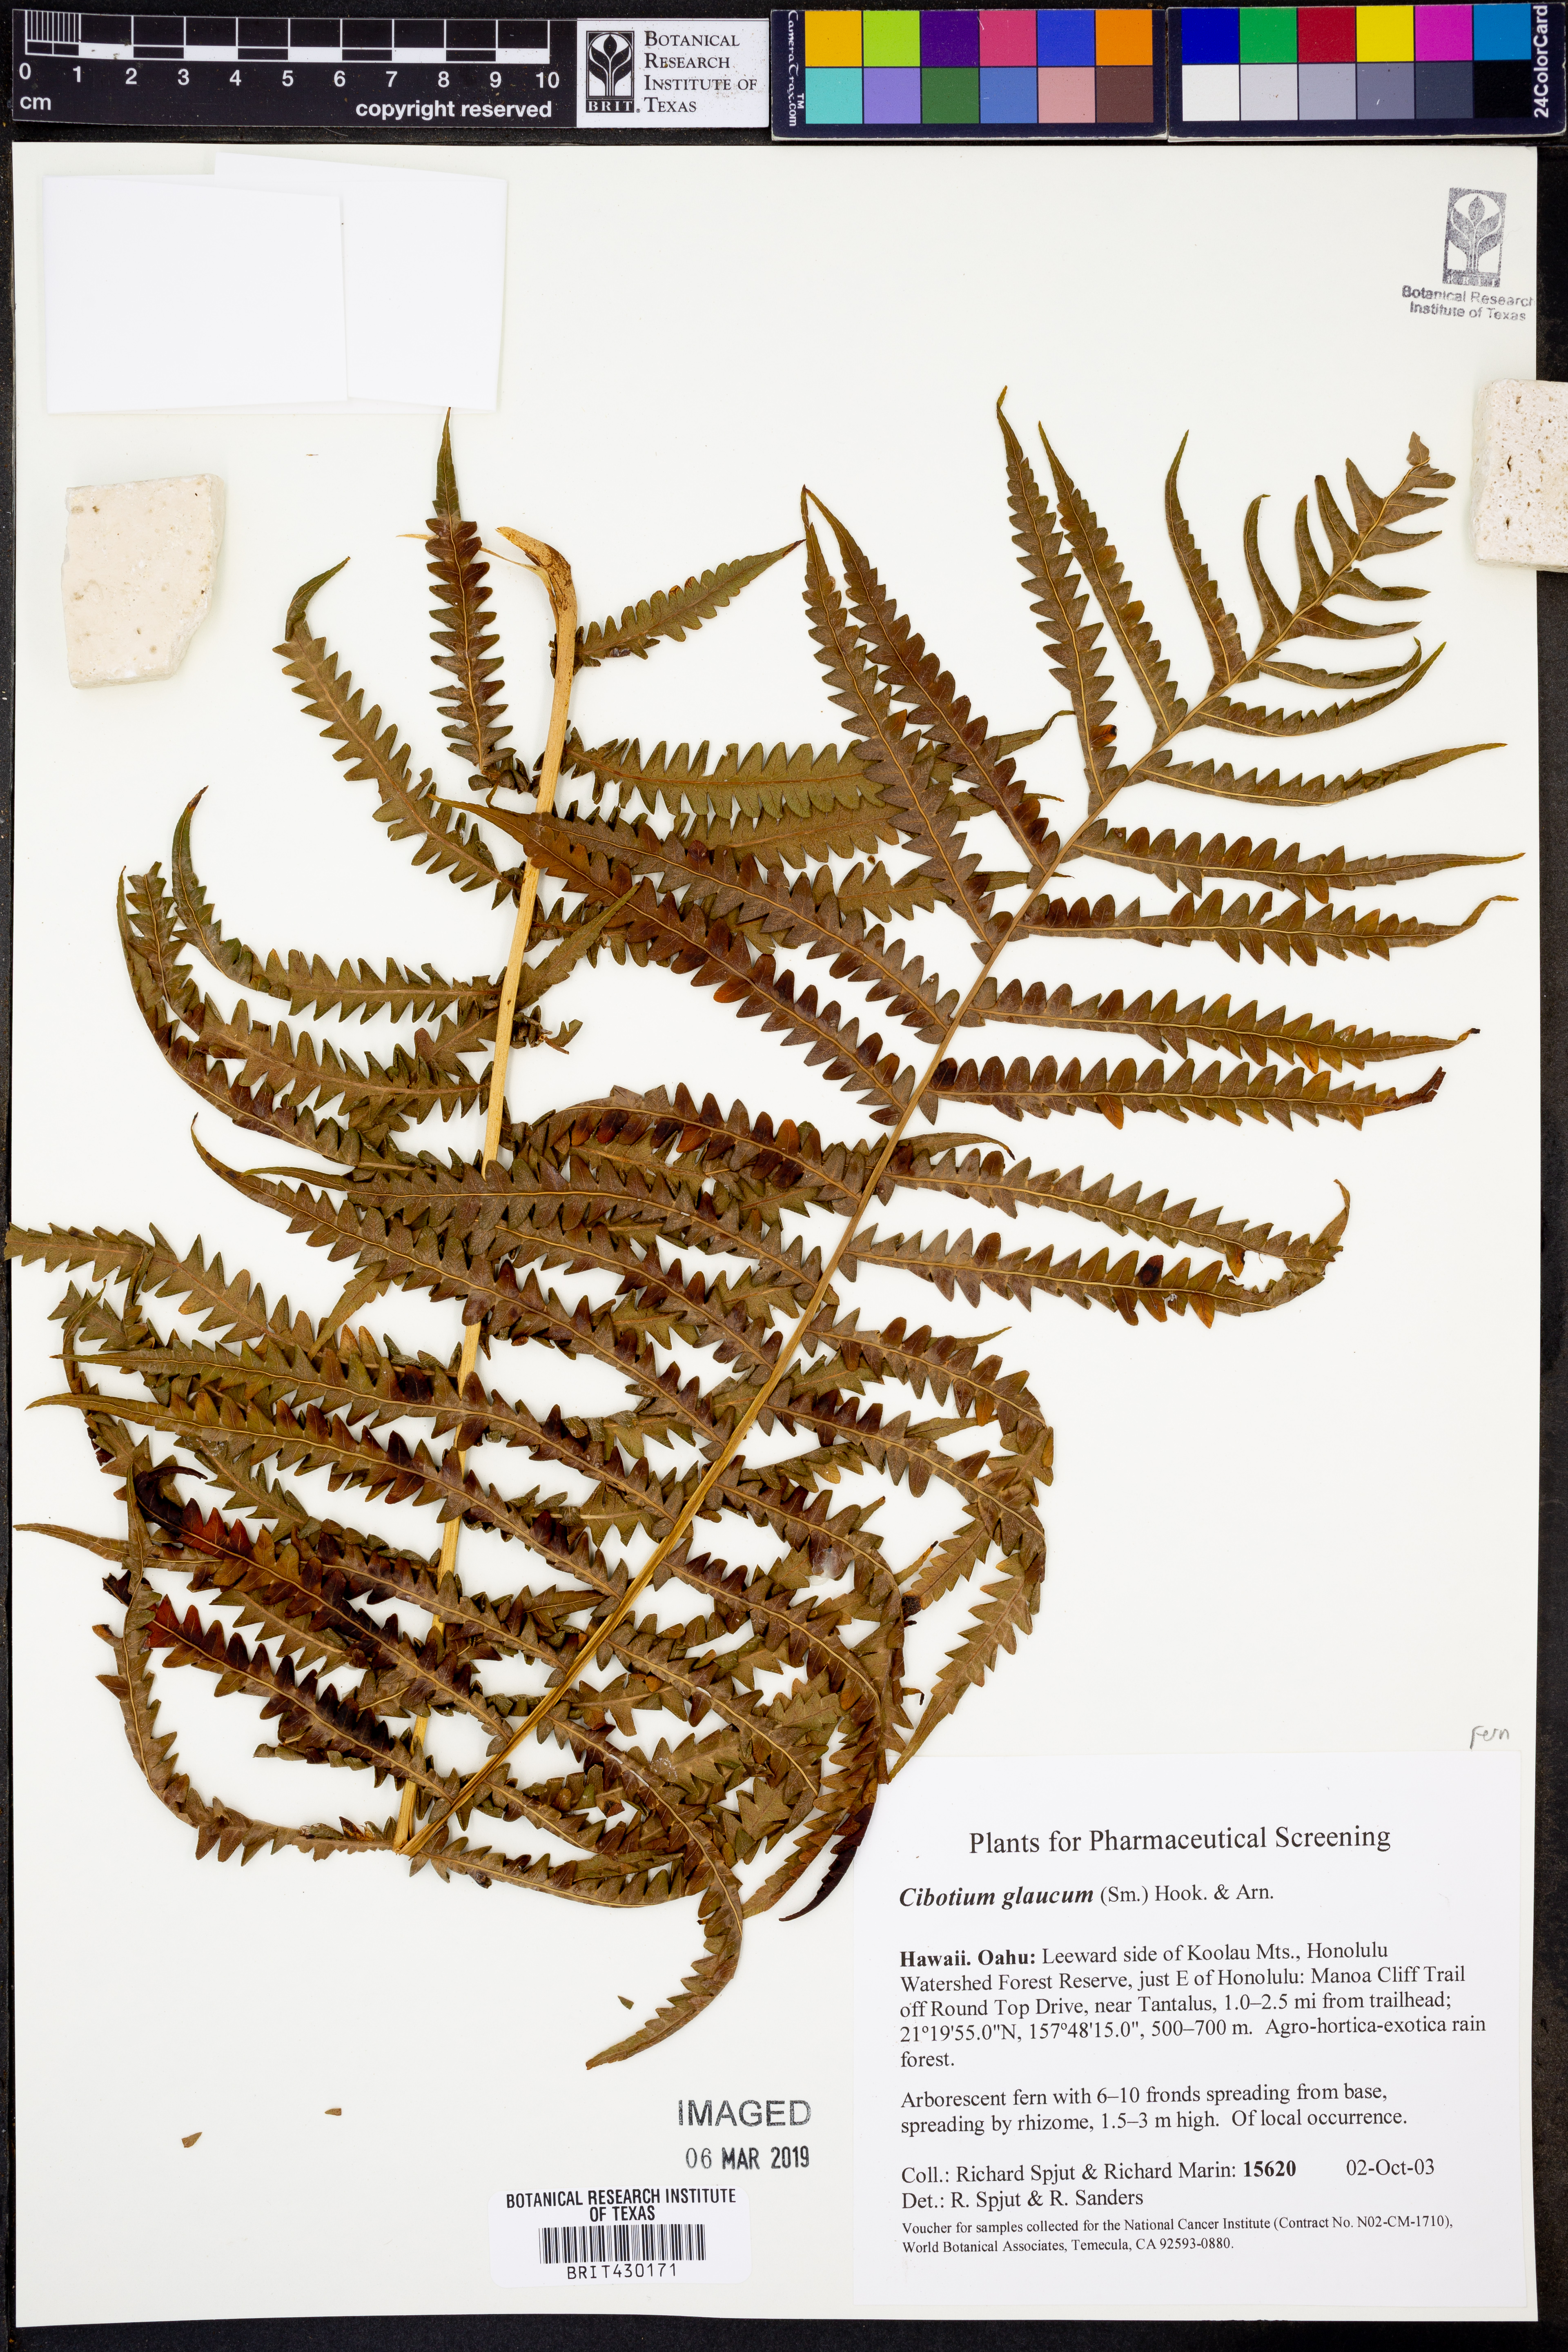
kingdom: Plantae
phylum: Tracheophyta
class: Polypodiopsida
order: Cyatheales
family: Cibotiaceae
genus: Cibotium
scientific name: Cibotium glaucum
